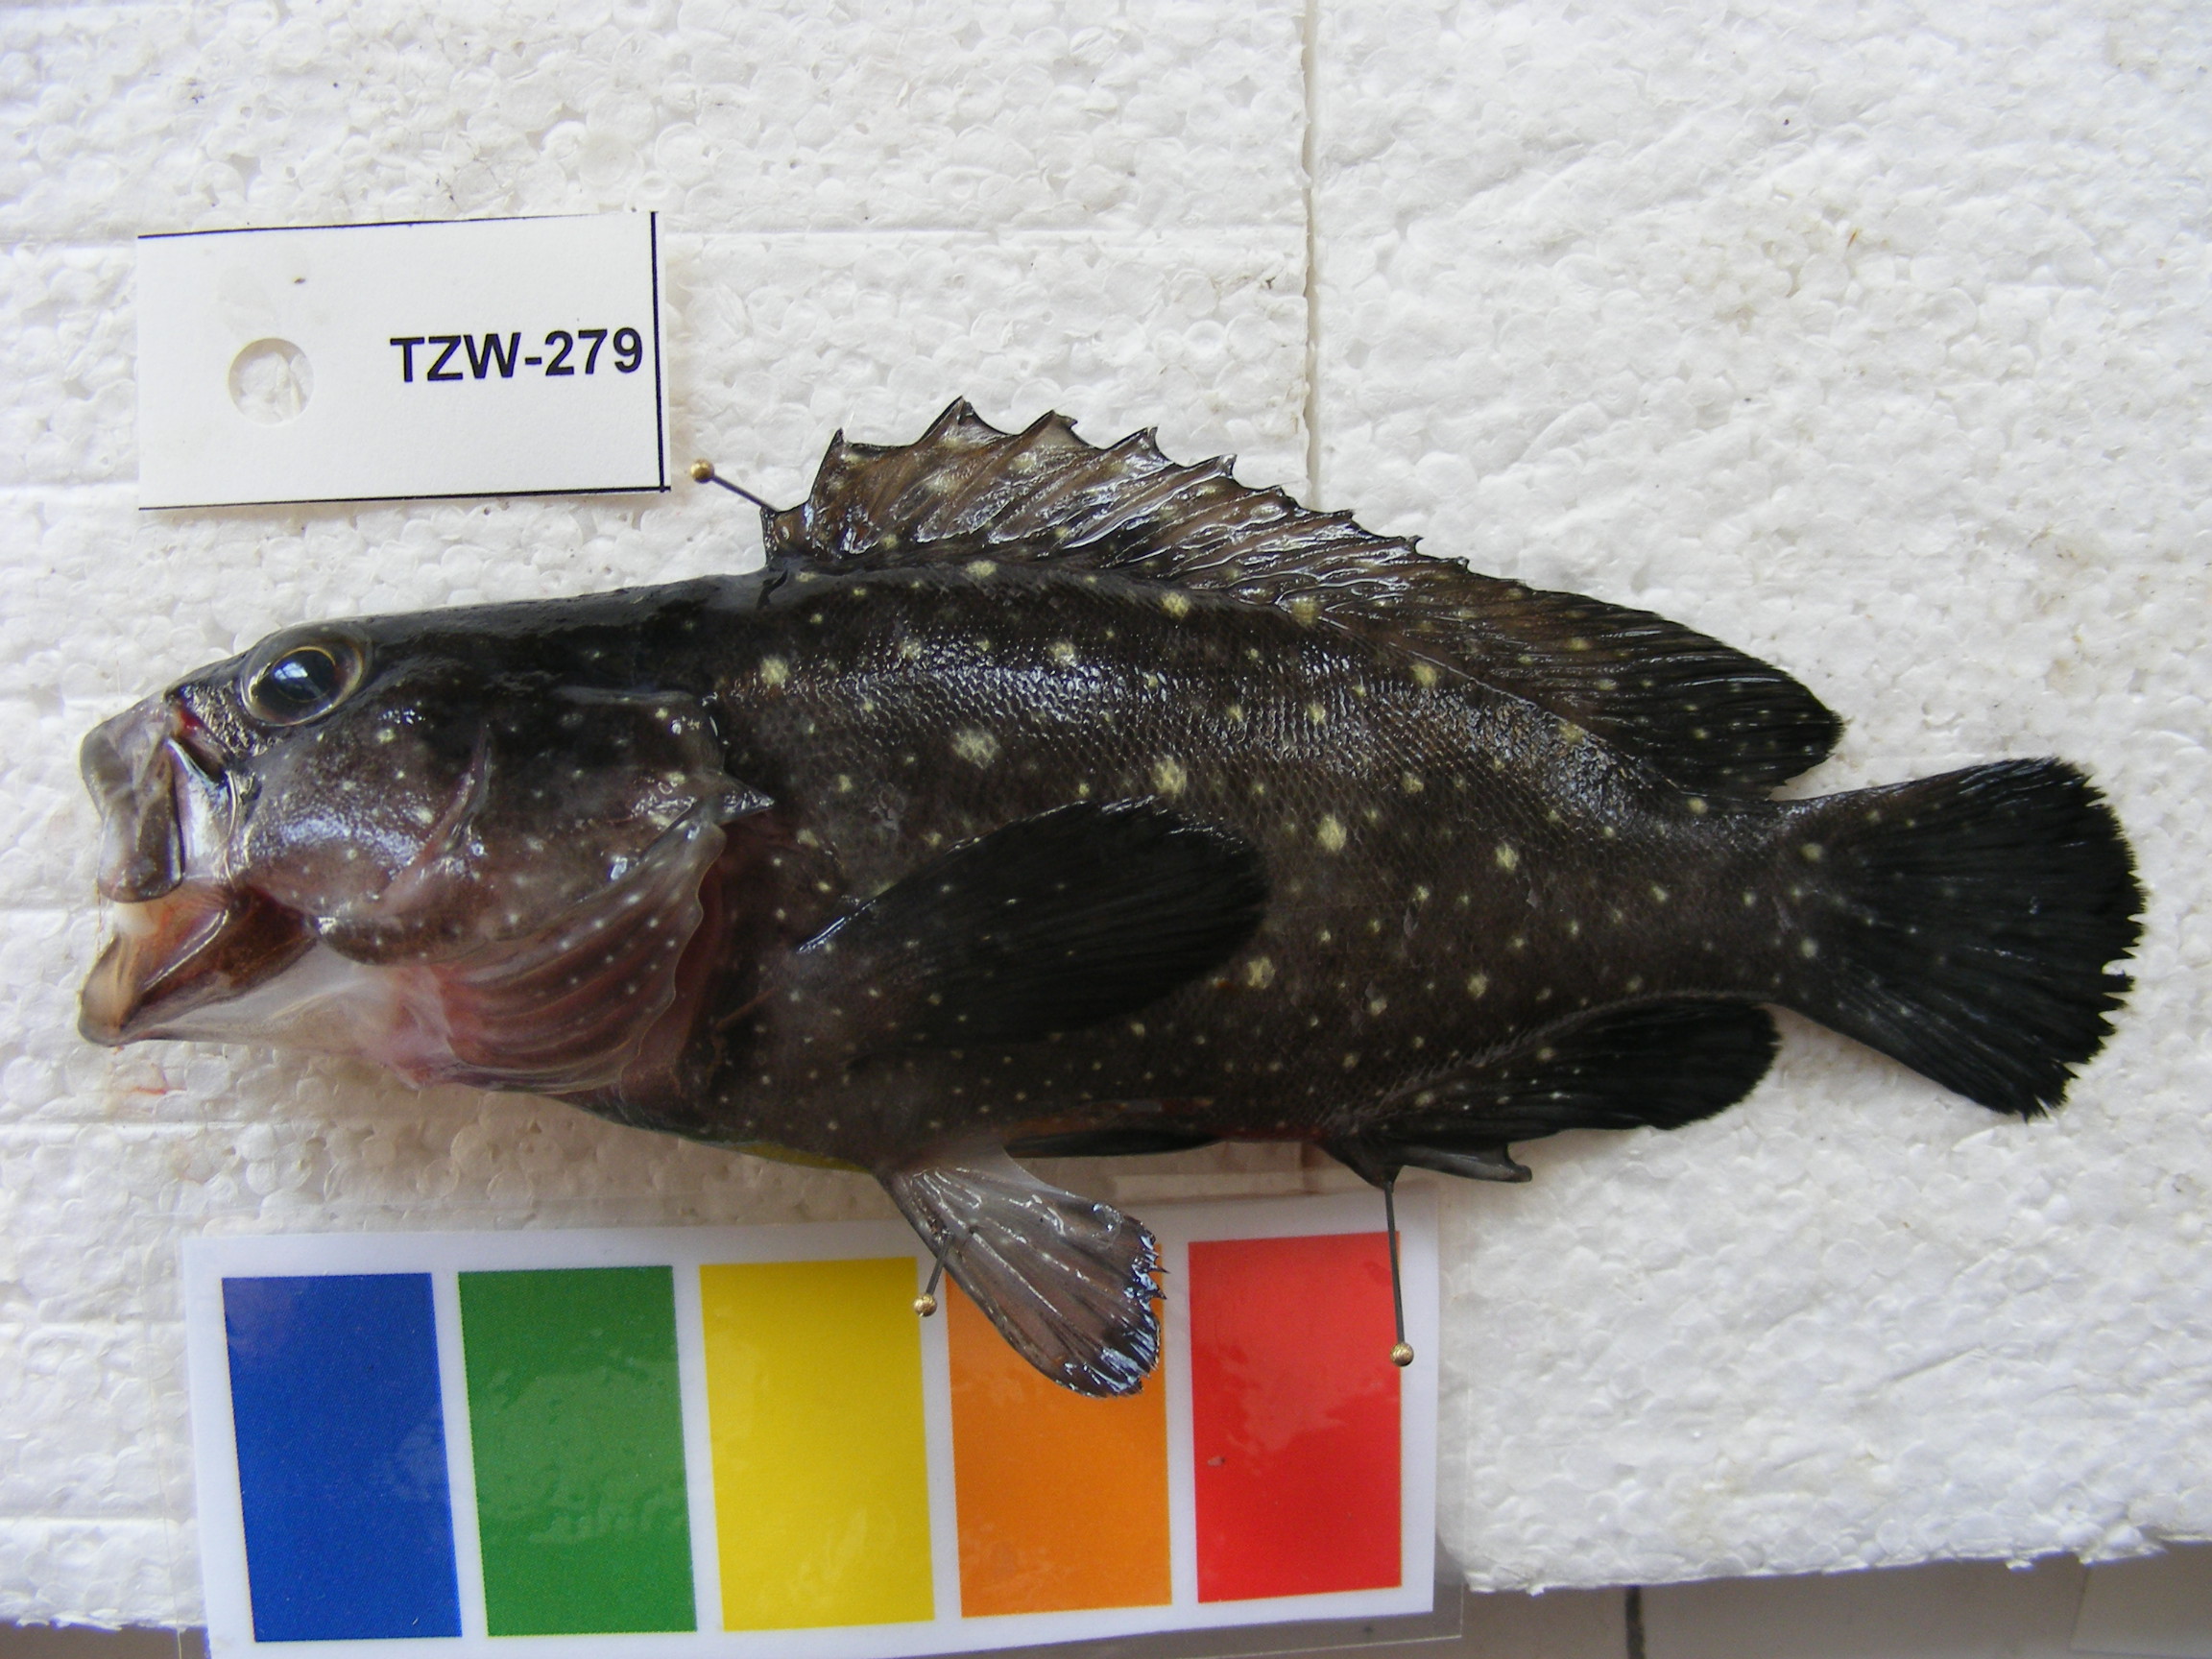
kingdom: Animalia
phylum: Chordata
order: Perciformes
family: Serranidae
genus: Epinephelus
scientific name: Epinephelus coeruleopunctatus
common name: Whitespotted grouper
